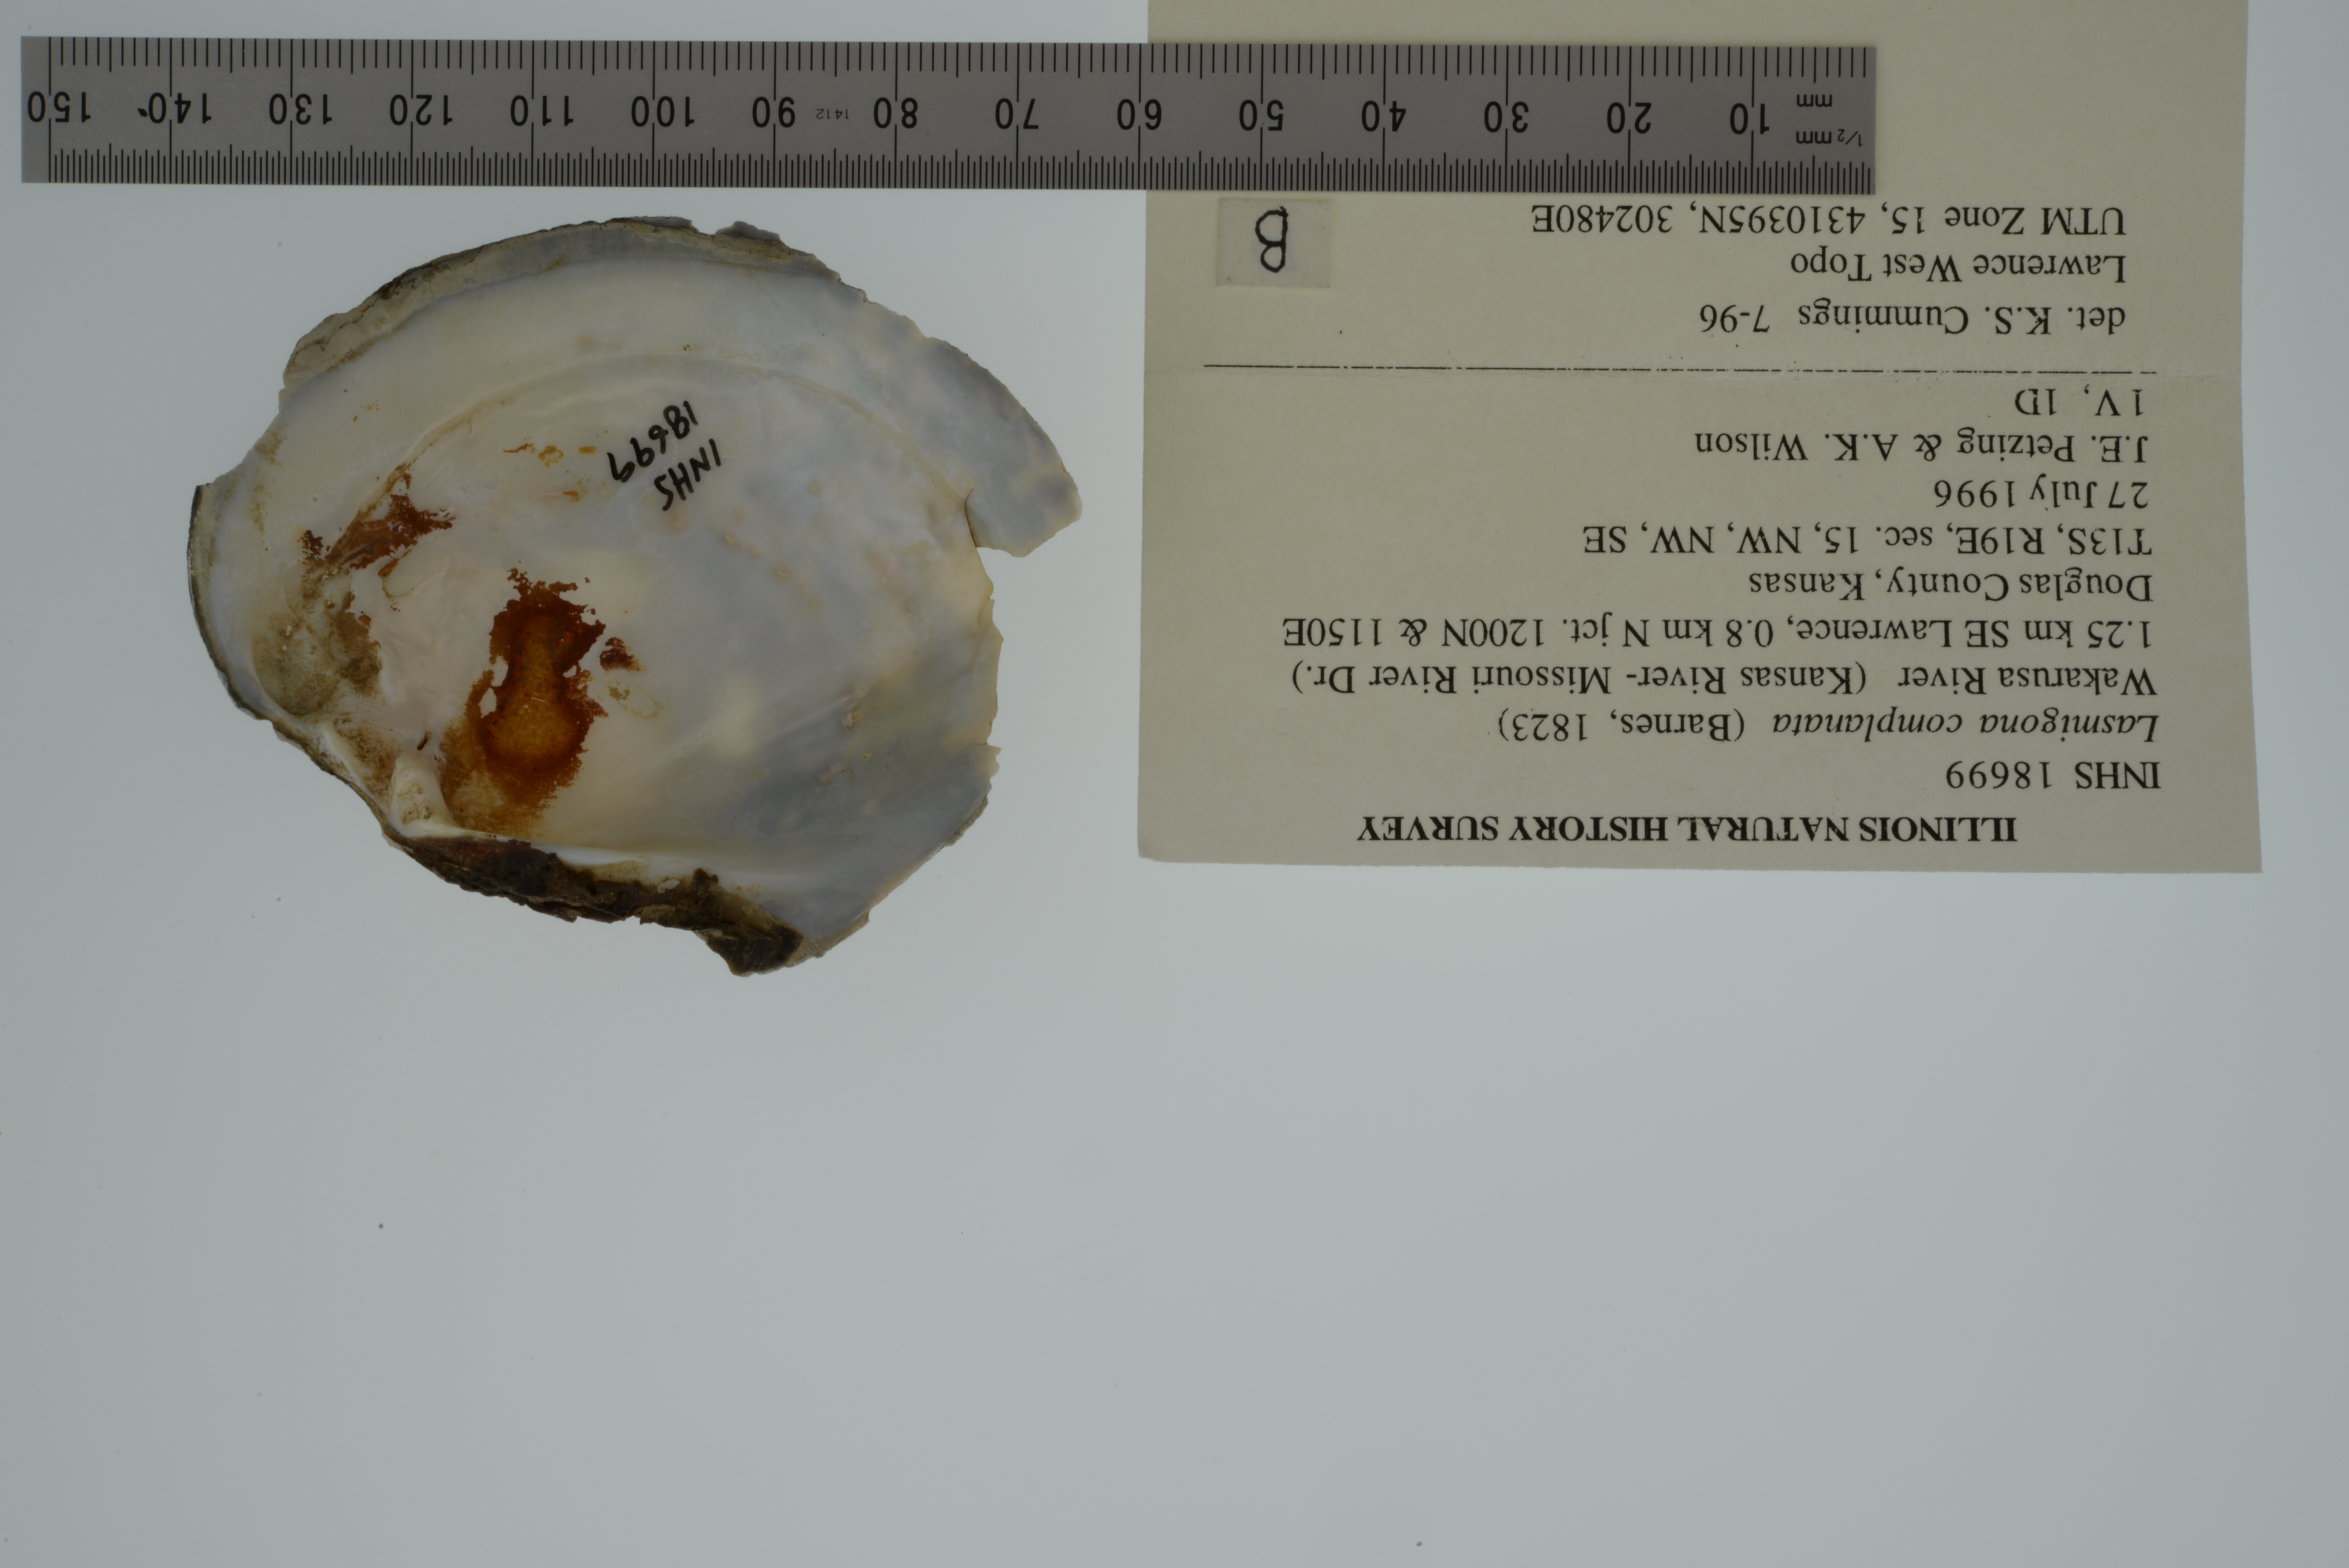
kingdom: Animalia
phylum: Mollusca
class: Bivalvia
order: Unionida
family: Unionidae
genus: Lasmigona
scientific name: Lasmigona complanata
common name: White heelsplitter
